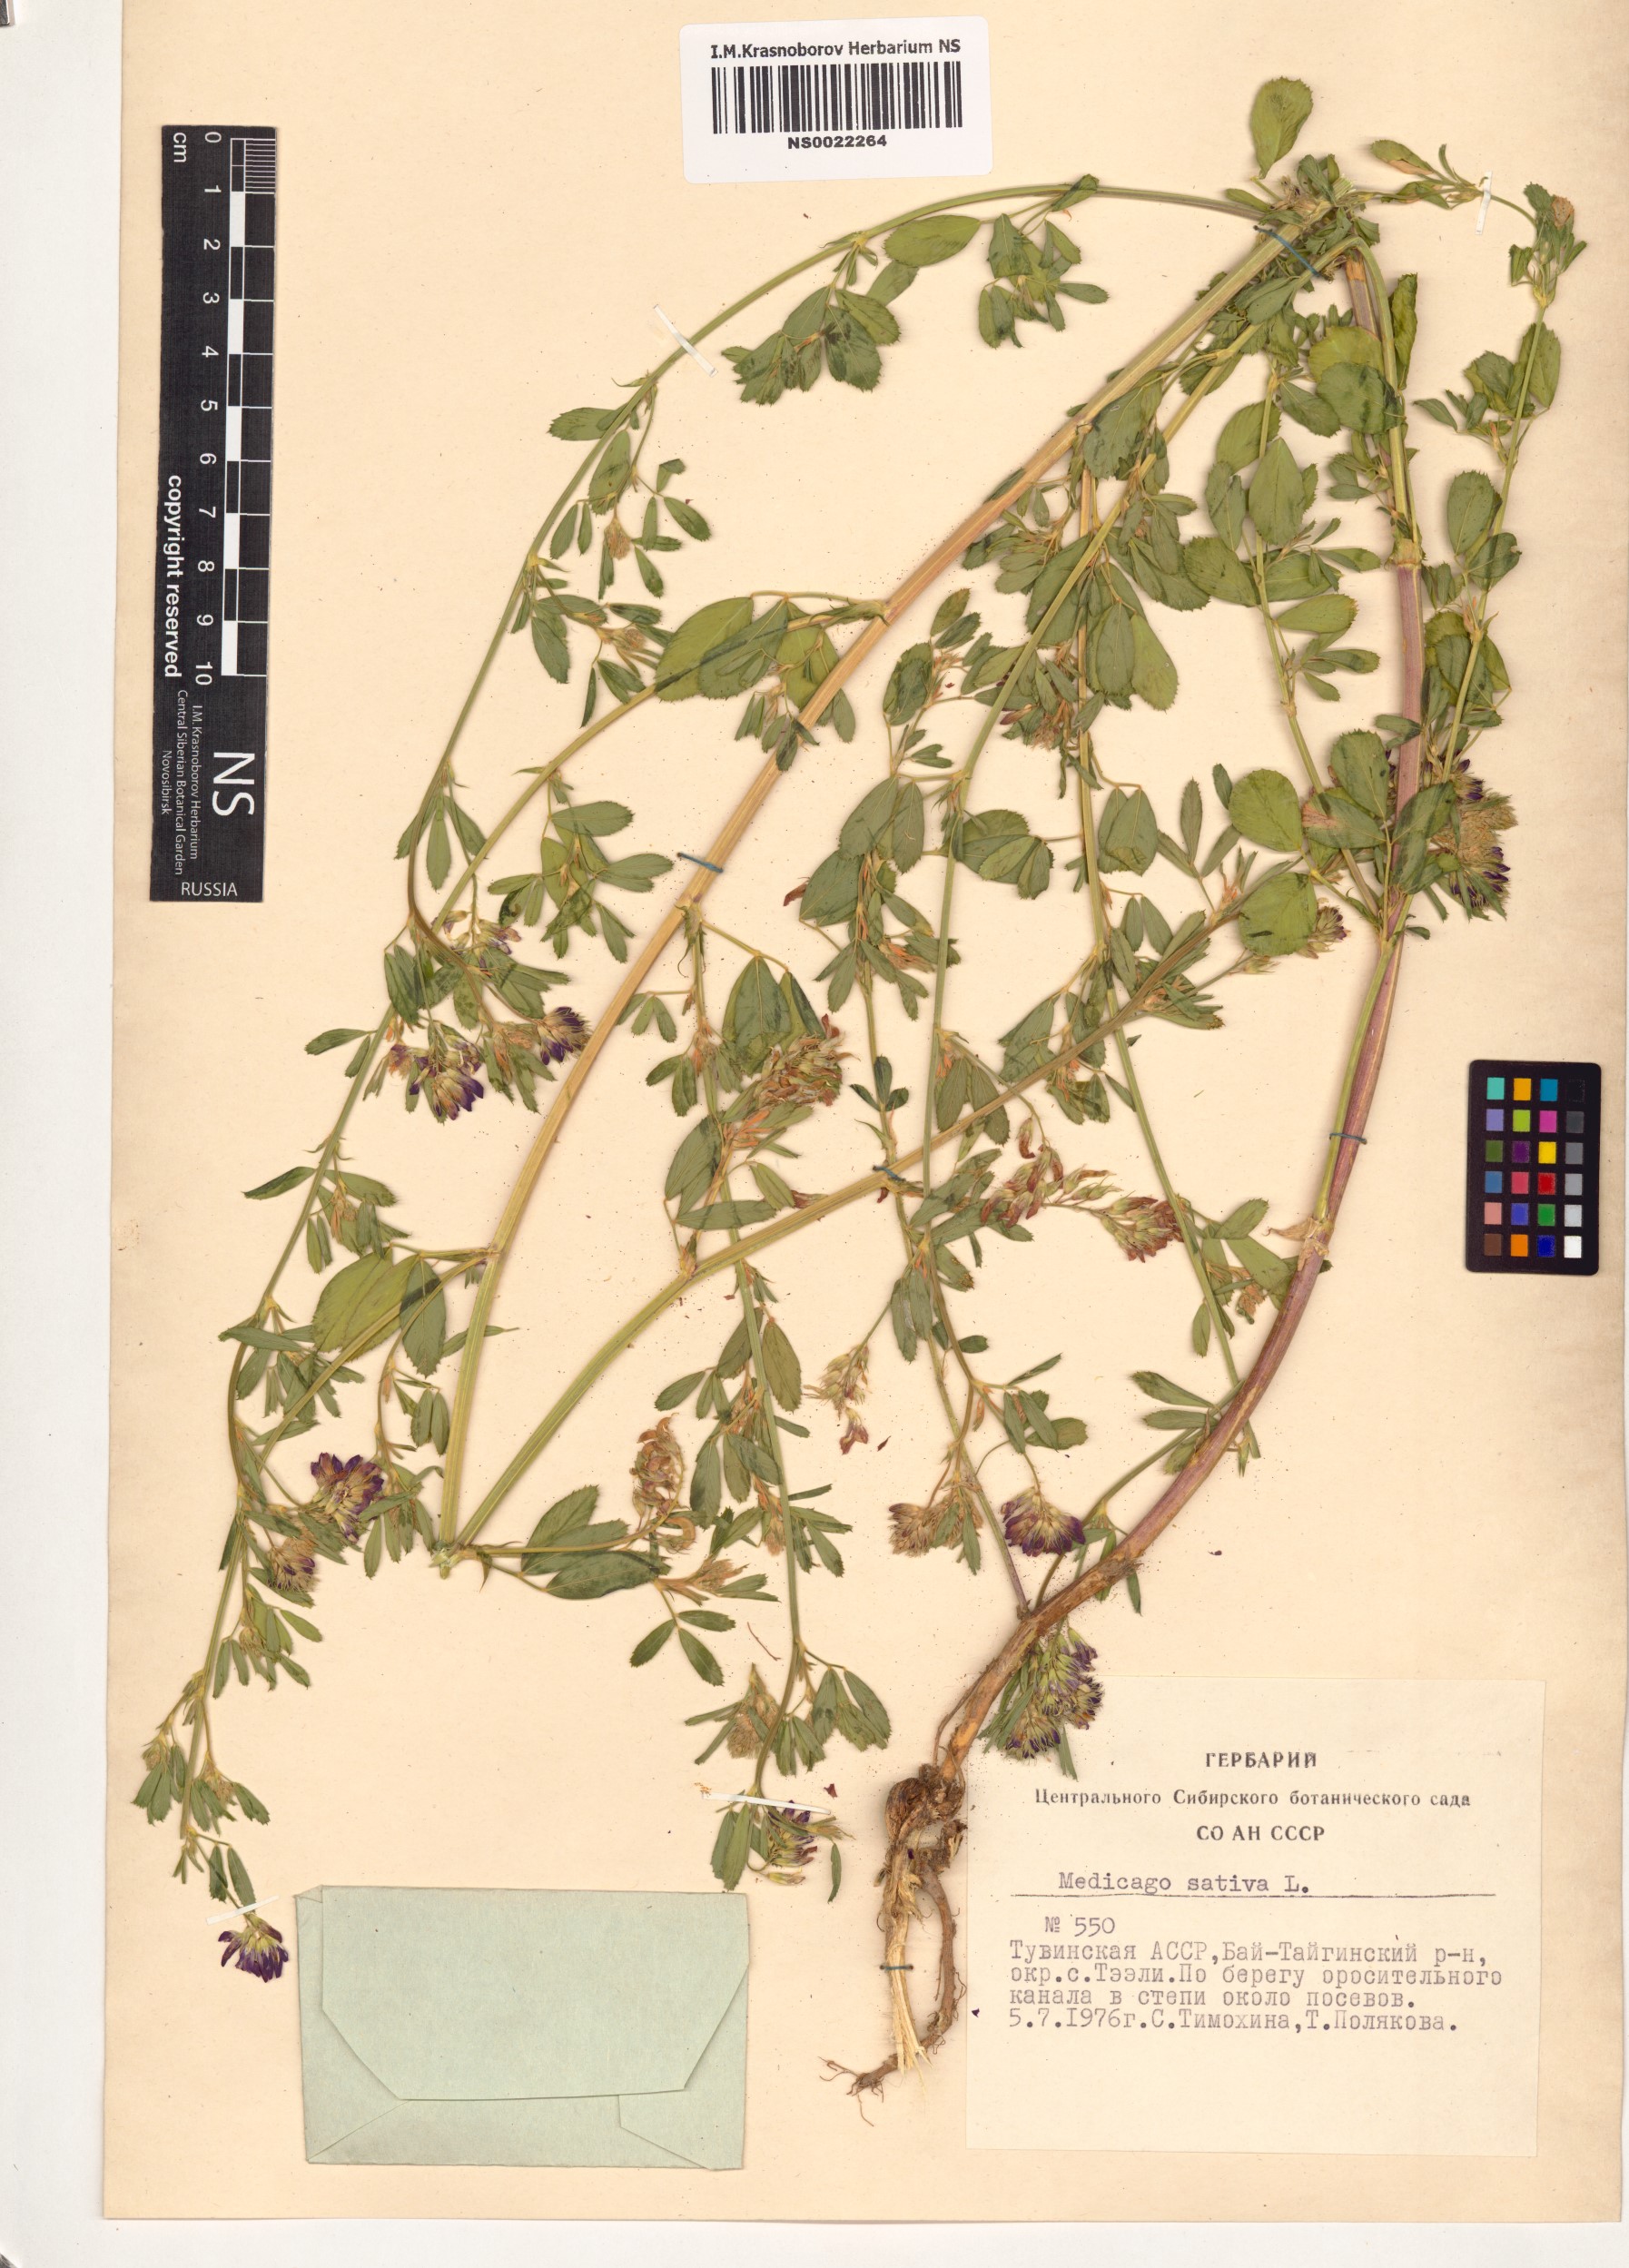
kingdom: Plantae
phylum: Tracheophyta
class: Magnoliopsida
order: Fabales
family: Fabaceae
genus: Medicago
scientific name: Medicago sativa
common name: Alfalfa
